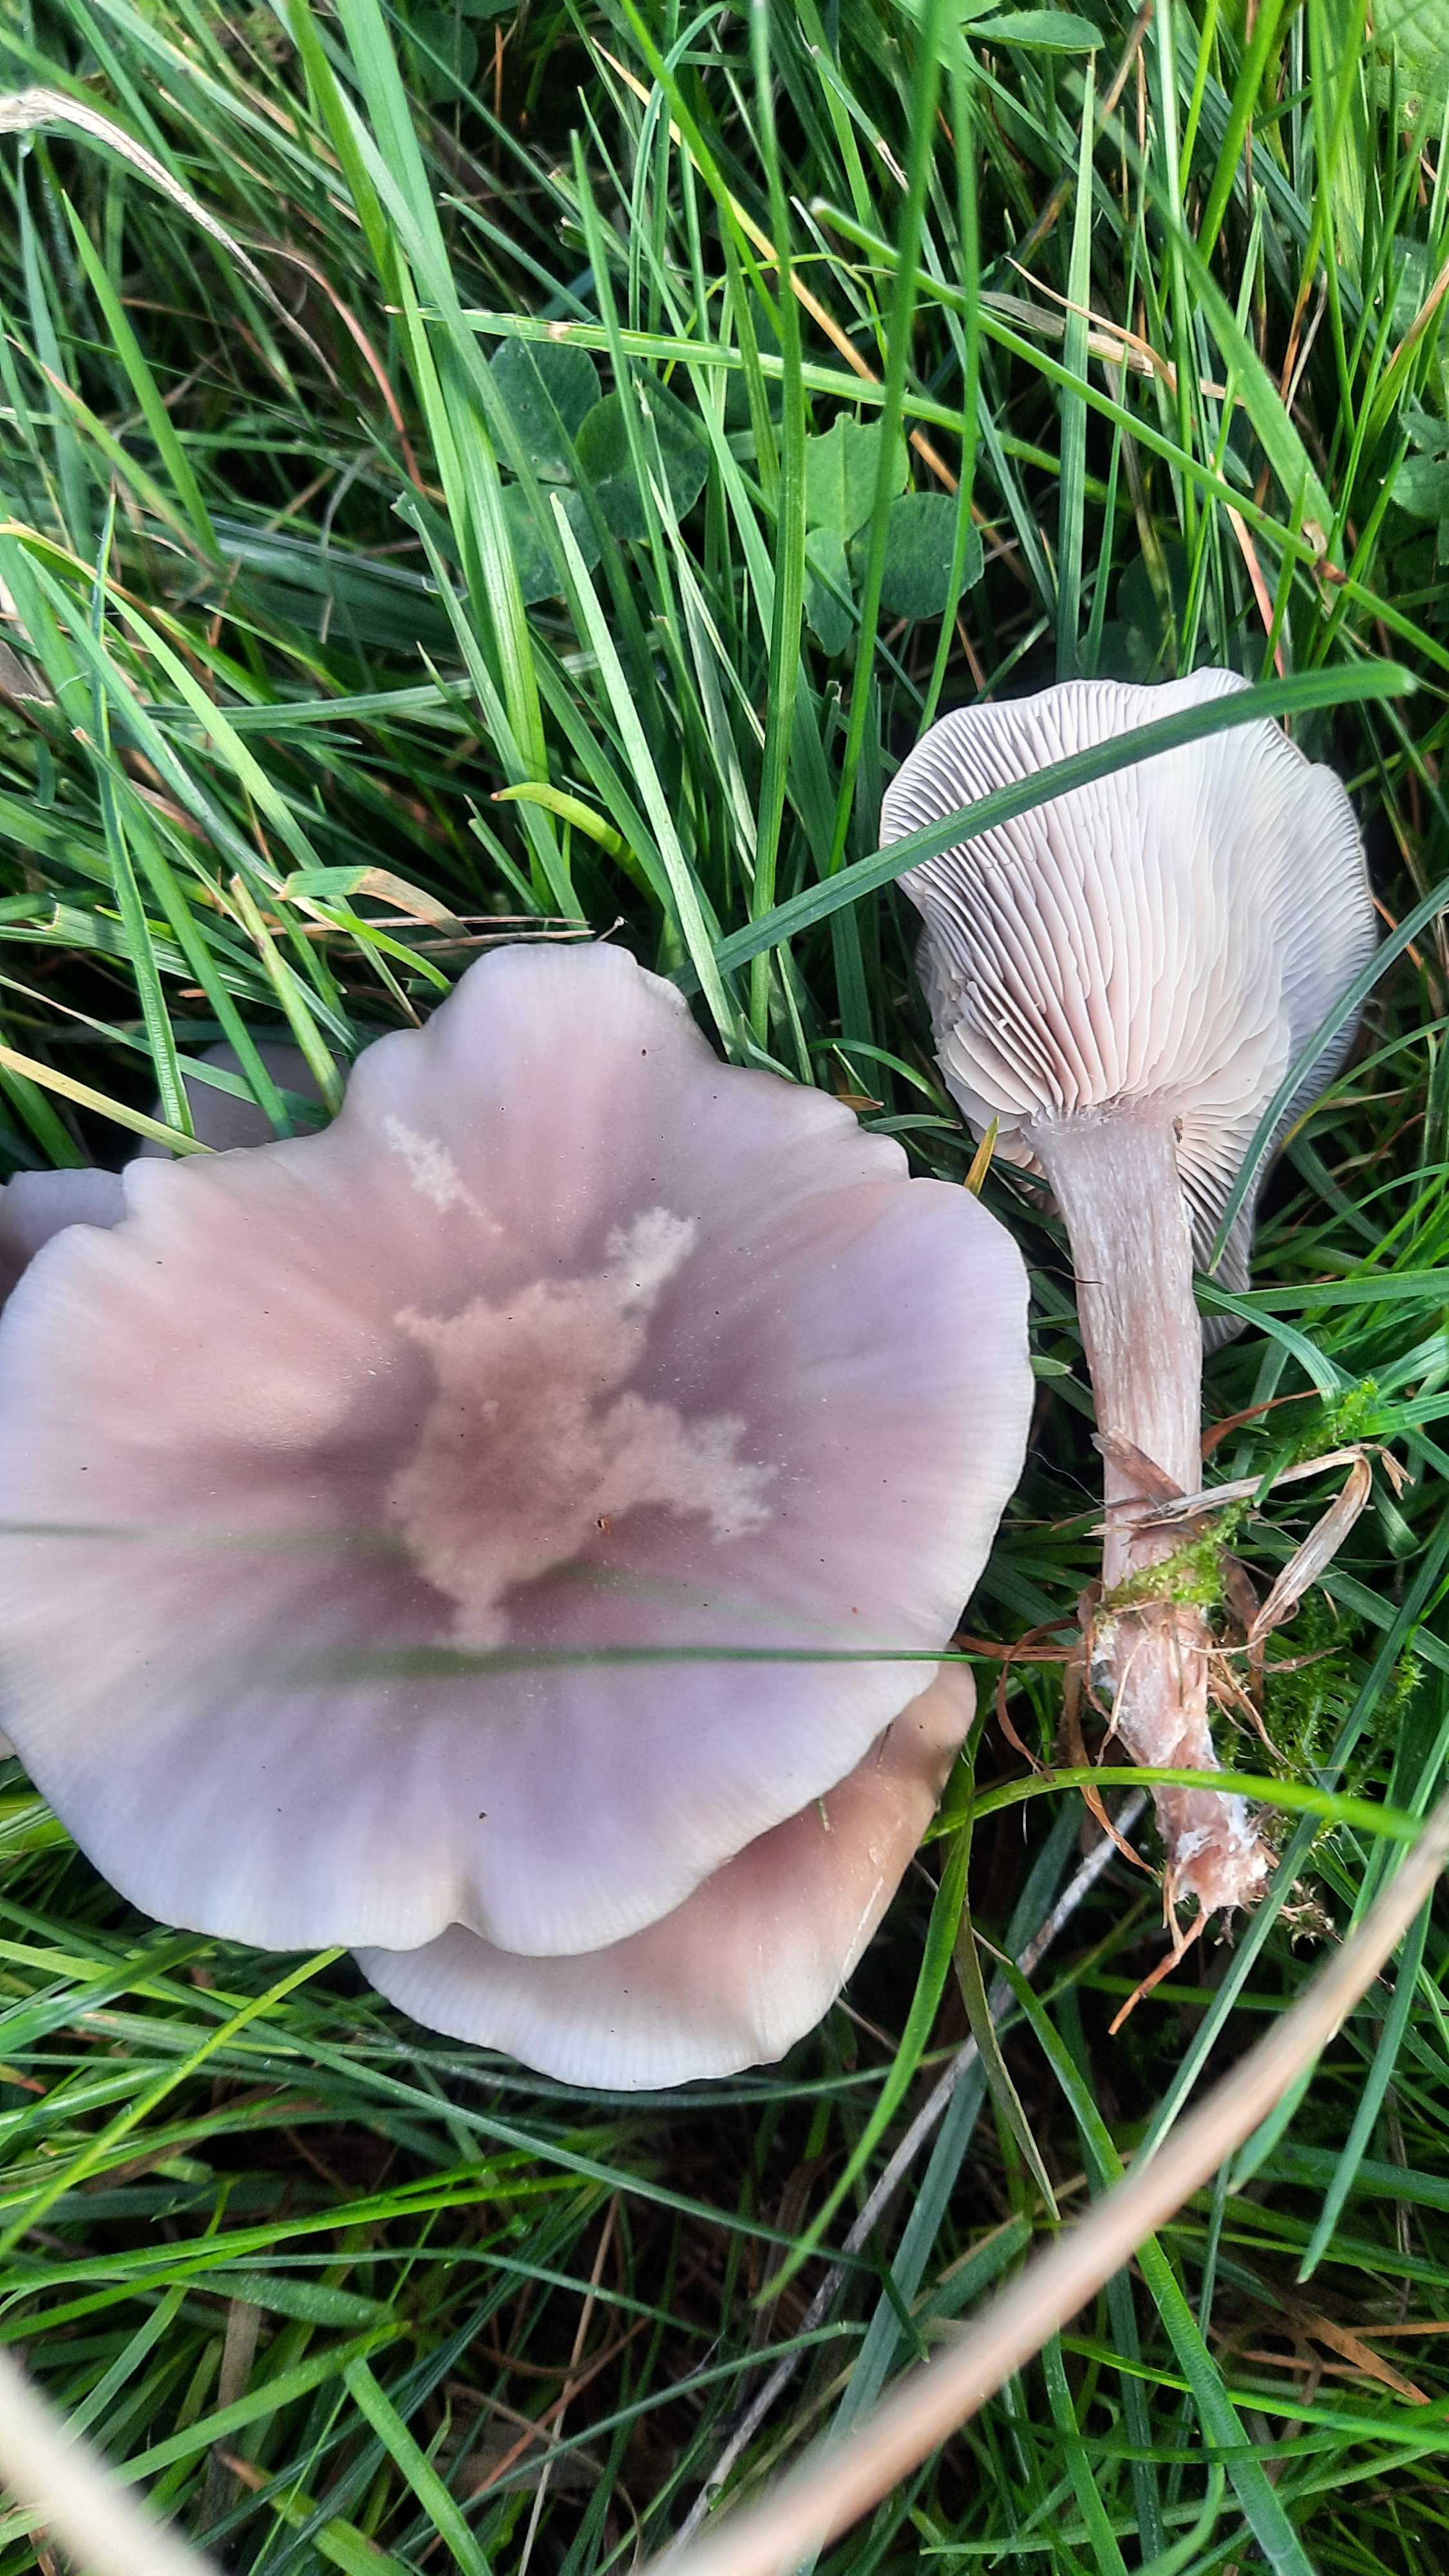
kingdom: Fungi
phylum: Basidiomycota
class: Agaricomycetes
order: Agaricales
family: Tricholomataceae
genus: Lepista
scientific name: Lepista lilacea
